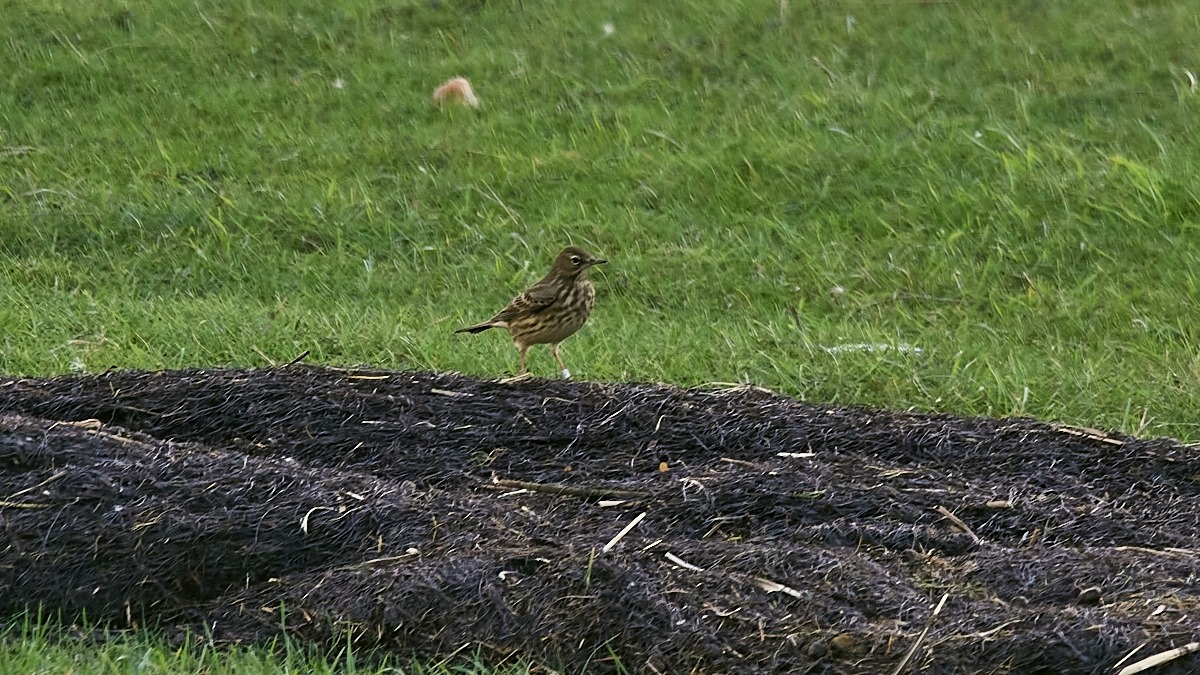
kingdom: Animalia
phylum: Chordata
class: Aves
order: Passeriformes
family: Motacillidae
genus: Anthus
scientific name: Anthus petrosus
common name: Skærpiber
